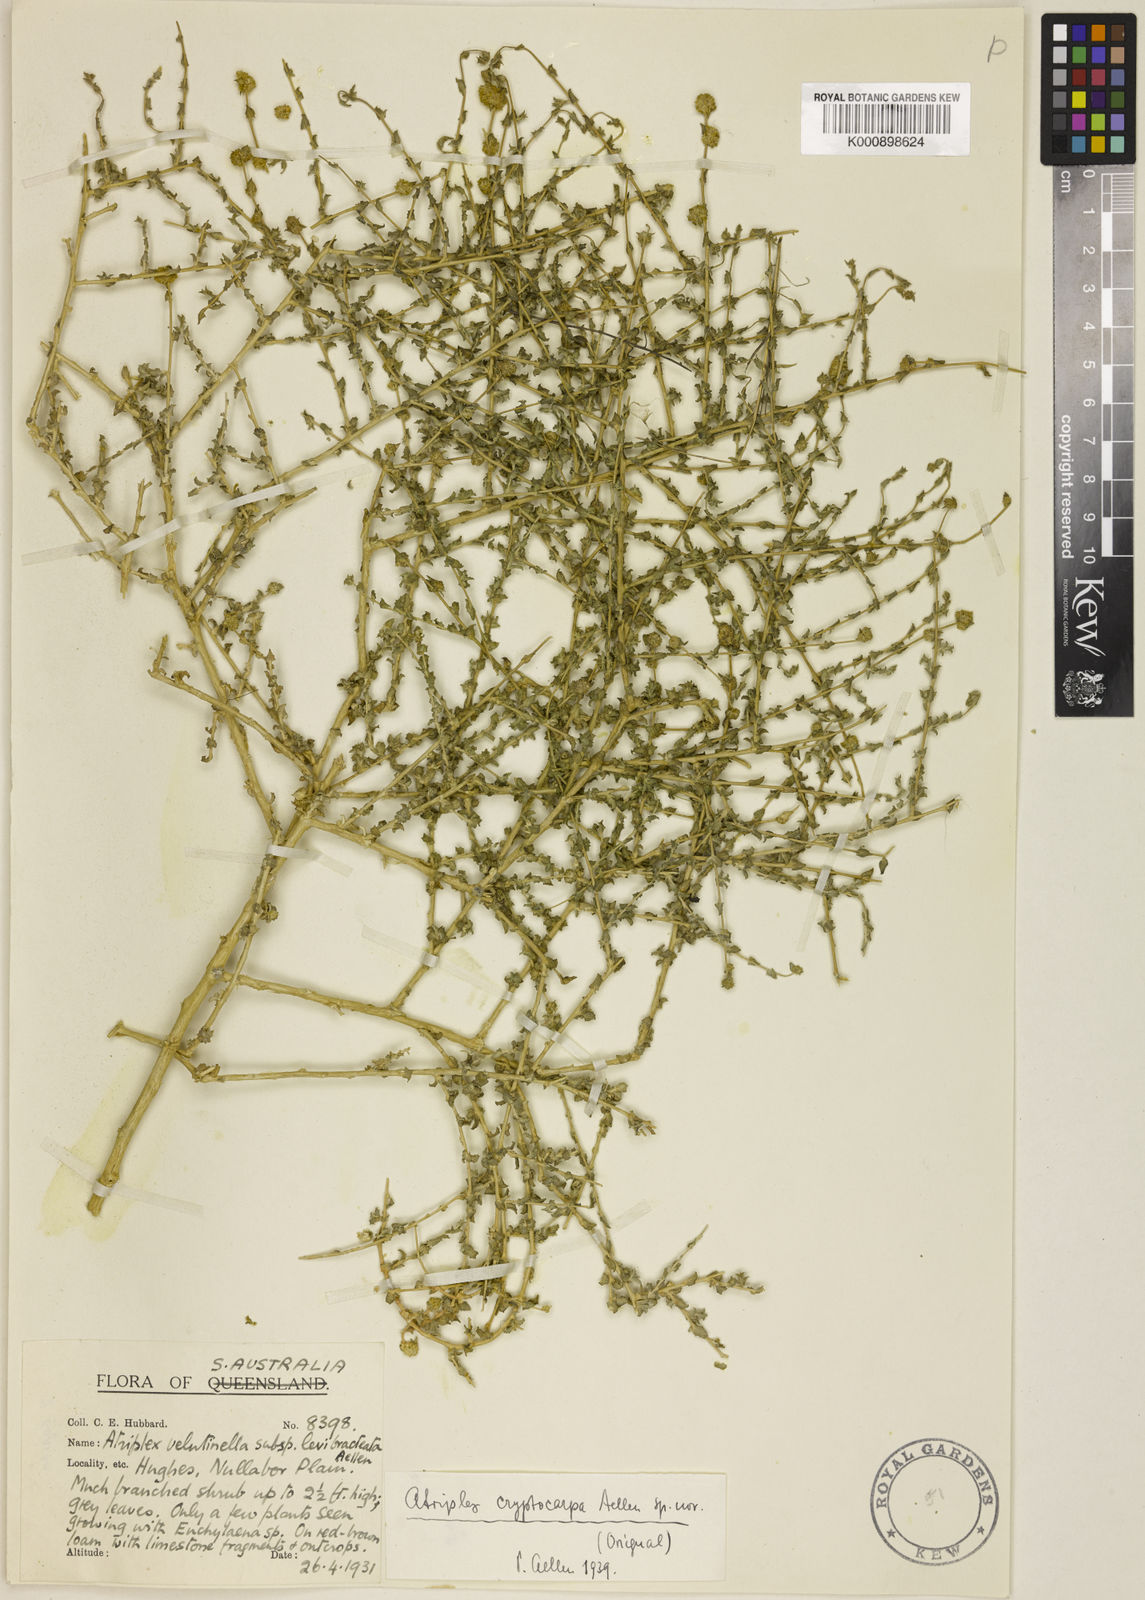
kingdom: Plantae
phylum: Tracheophyta
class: Magnoliopsida
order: Caryophyllales
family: Amaranthaceae
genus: Atriplex
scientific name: Atriplex cryptocarpa
